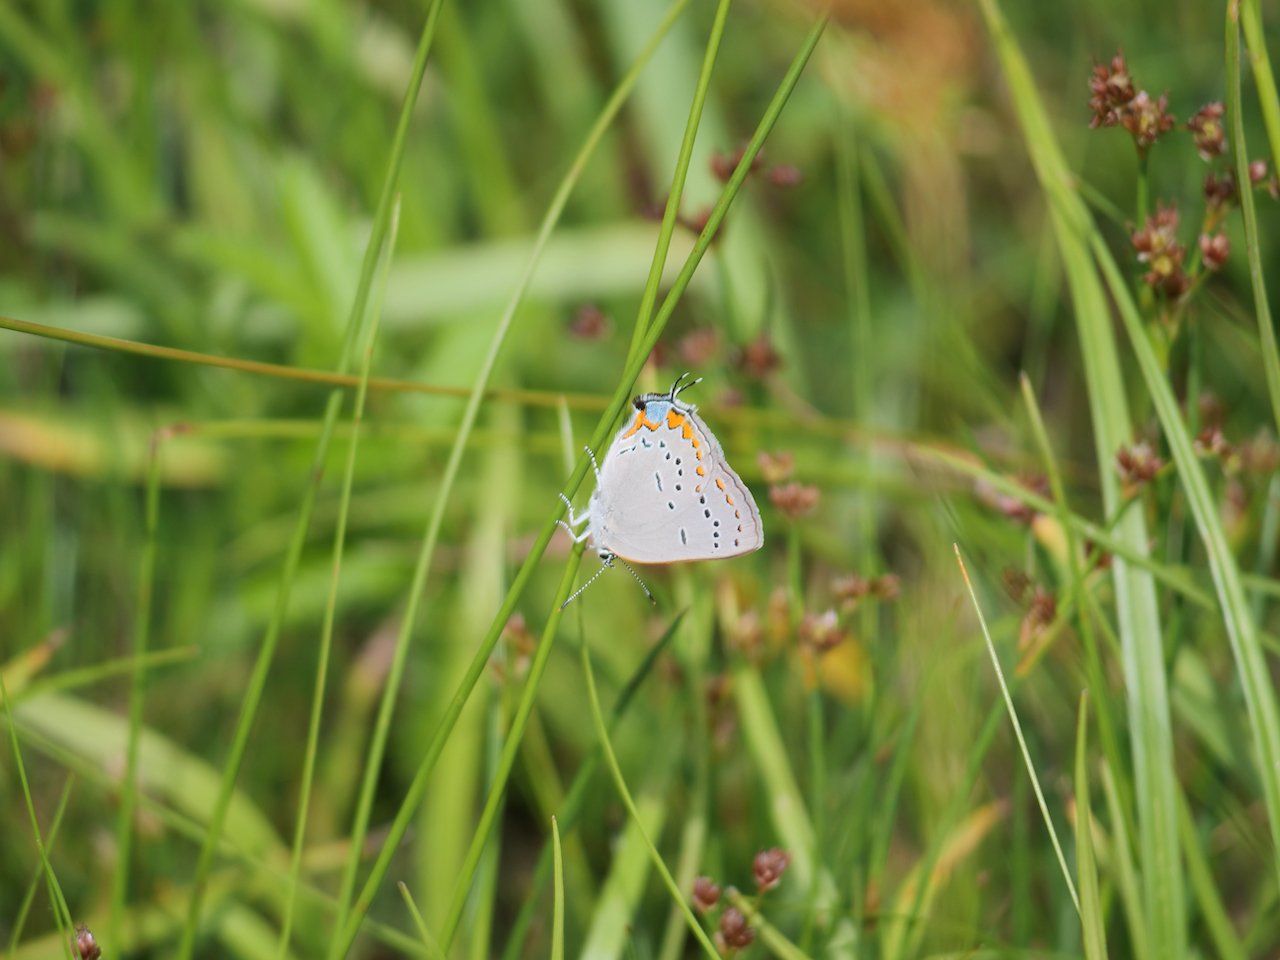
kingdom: Animalia
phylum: Arthropoda
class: Insecta
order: Lepidoptera
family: Lycaenidae
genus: Strymon
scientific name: Strymon acadica
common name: Acadian Hairstreak
